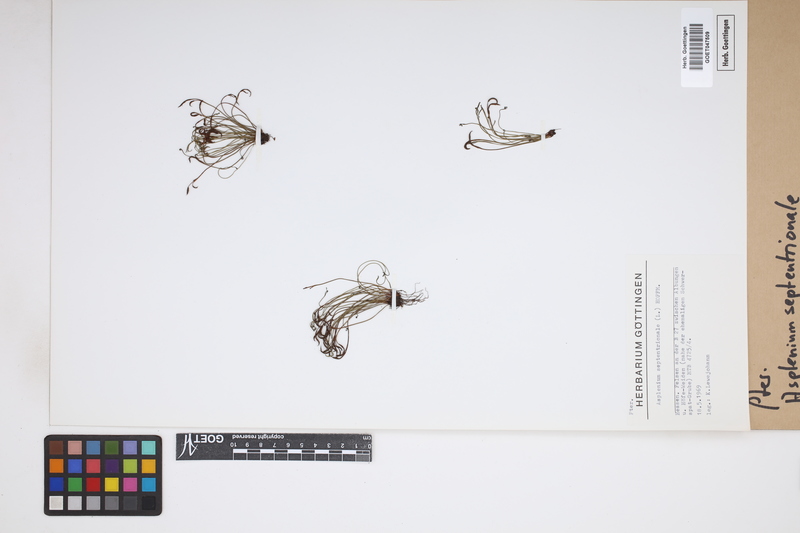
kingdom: Plantae
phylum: Tracheophyta
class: Polypodiopsida
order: Polypodiales
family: Aspleniaceae
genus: Asplenium
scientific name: Asplenium septentrionale
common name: Forked spleenwort
